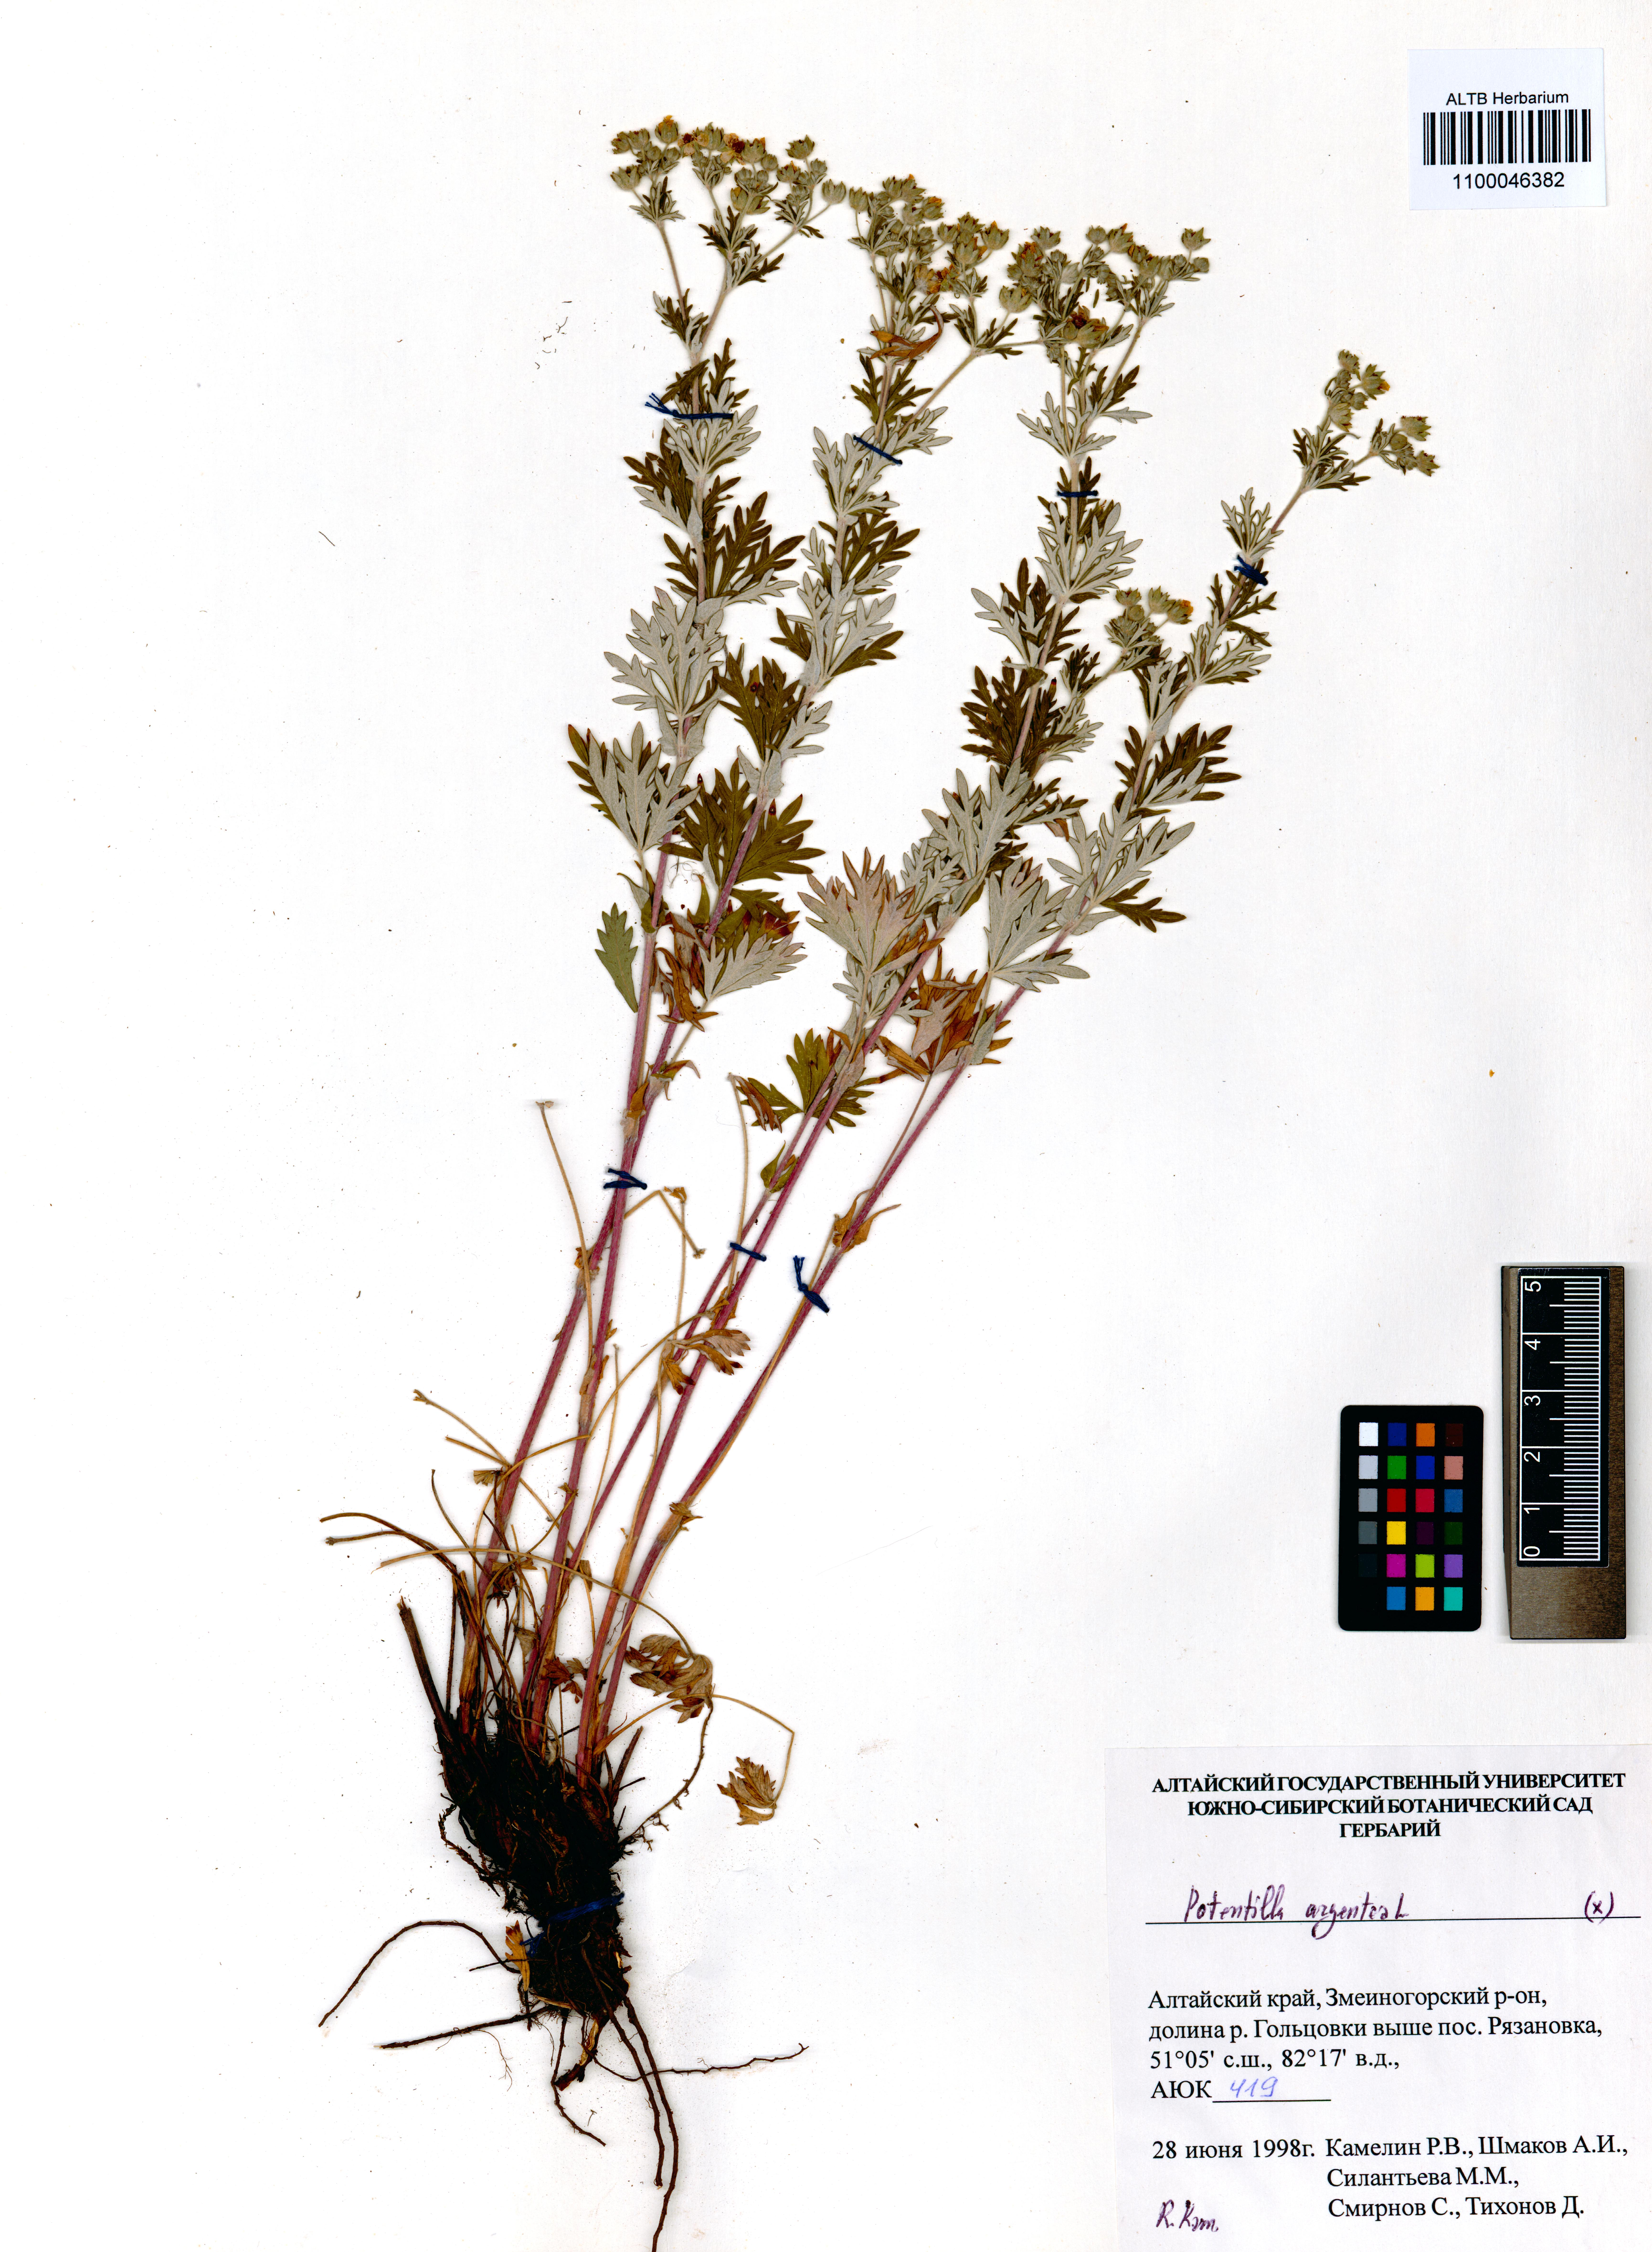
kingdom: Plantae
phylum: Tracheophyta
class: Magnoliopsida
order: Rosales
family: Rosaceae
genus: Potentilla
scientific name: Potentilla argentea
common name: Hoary cinquefoil
